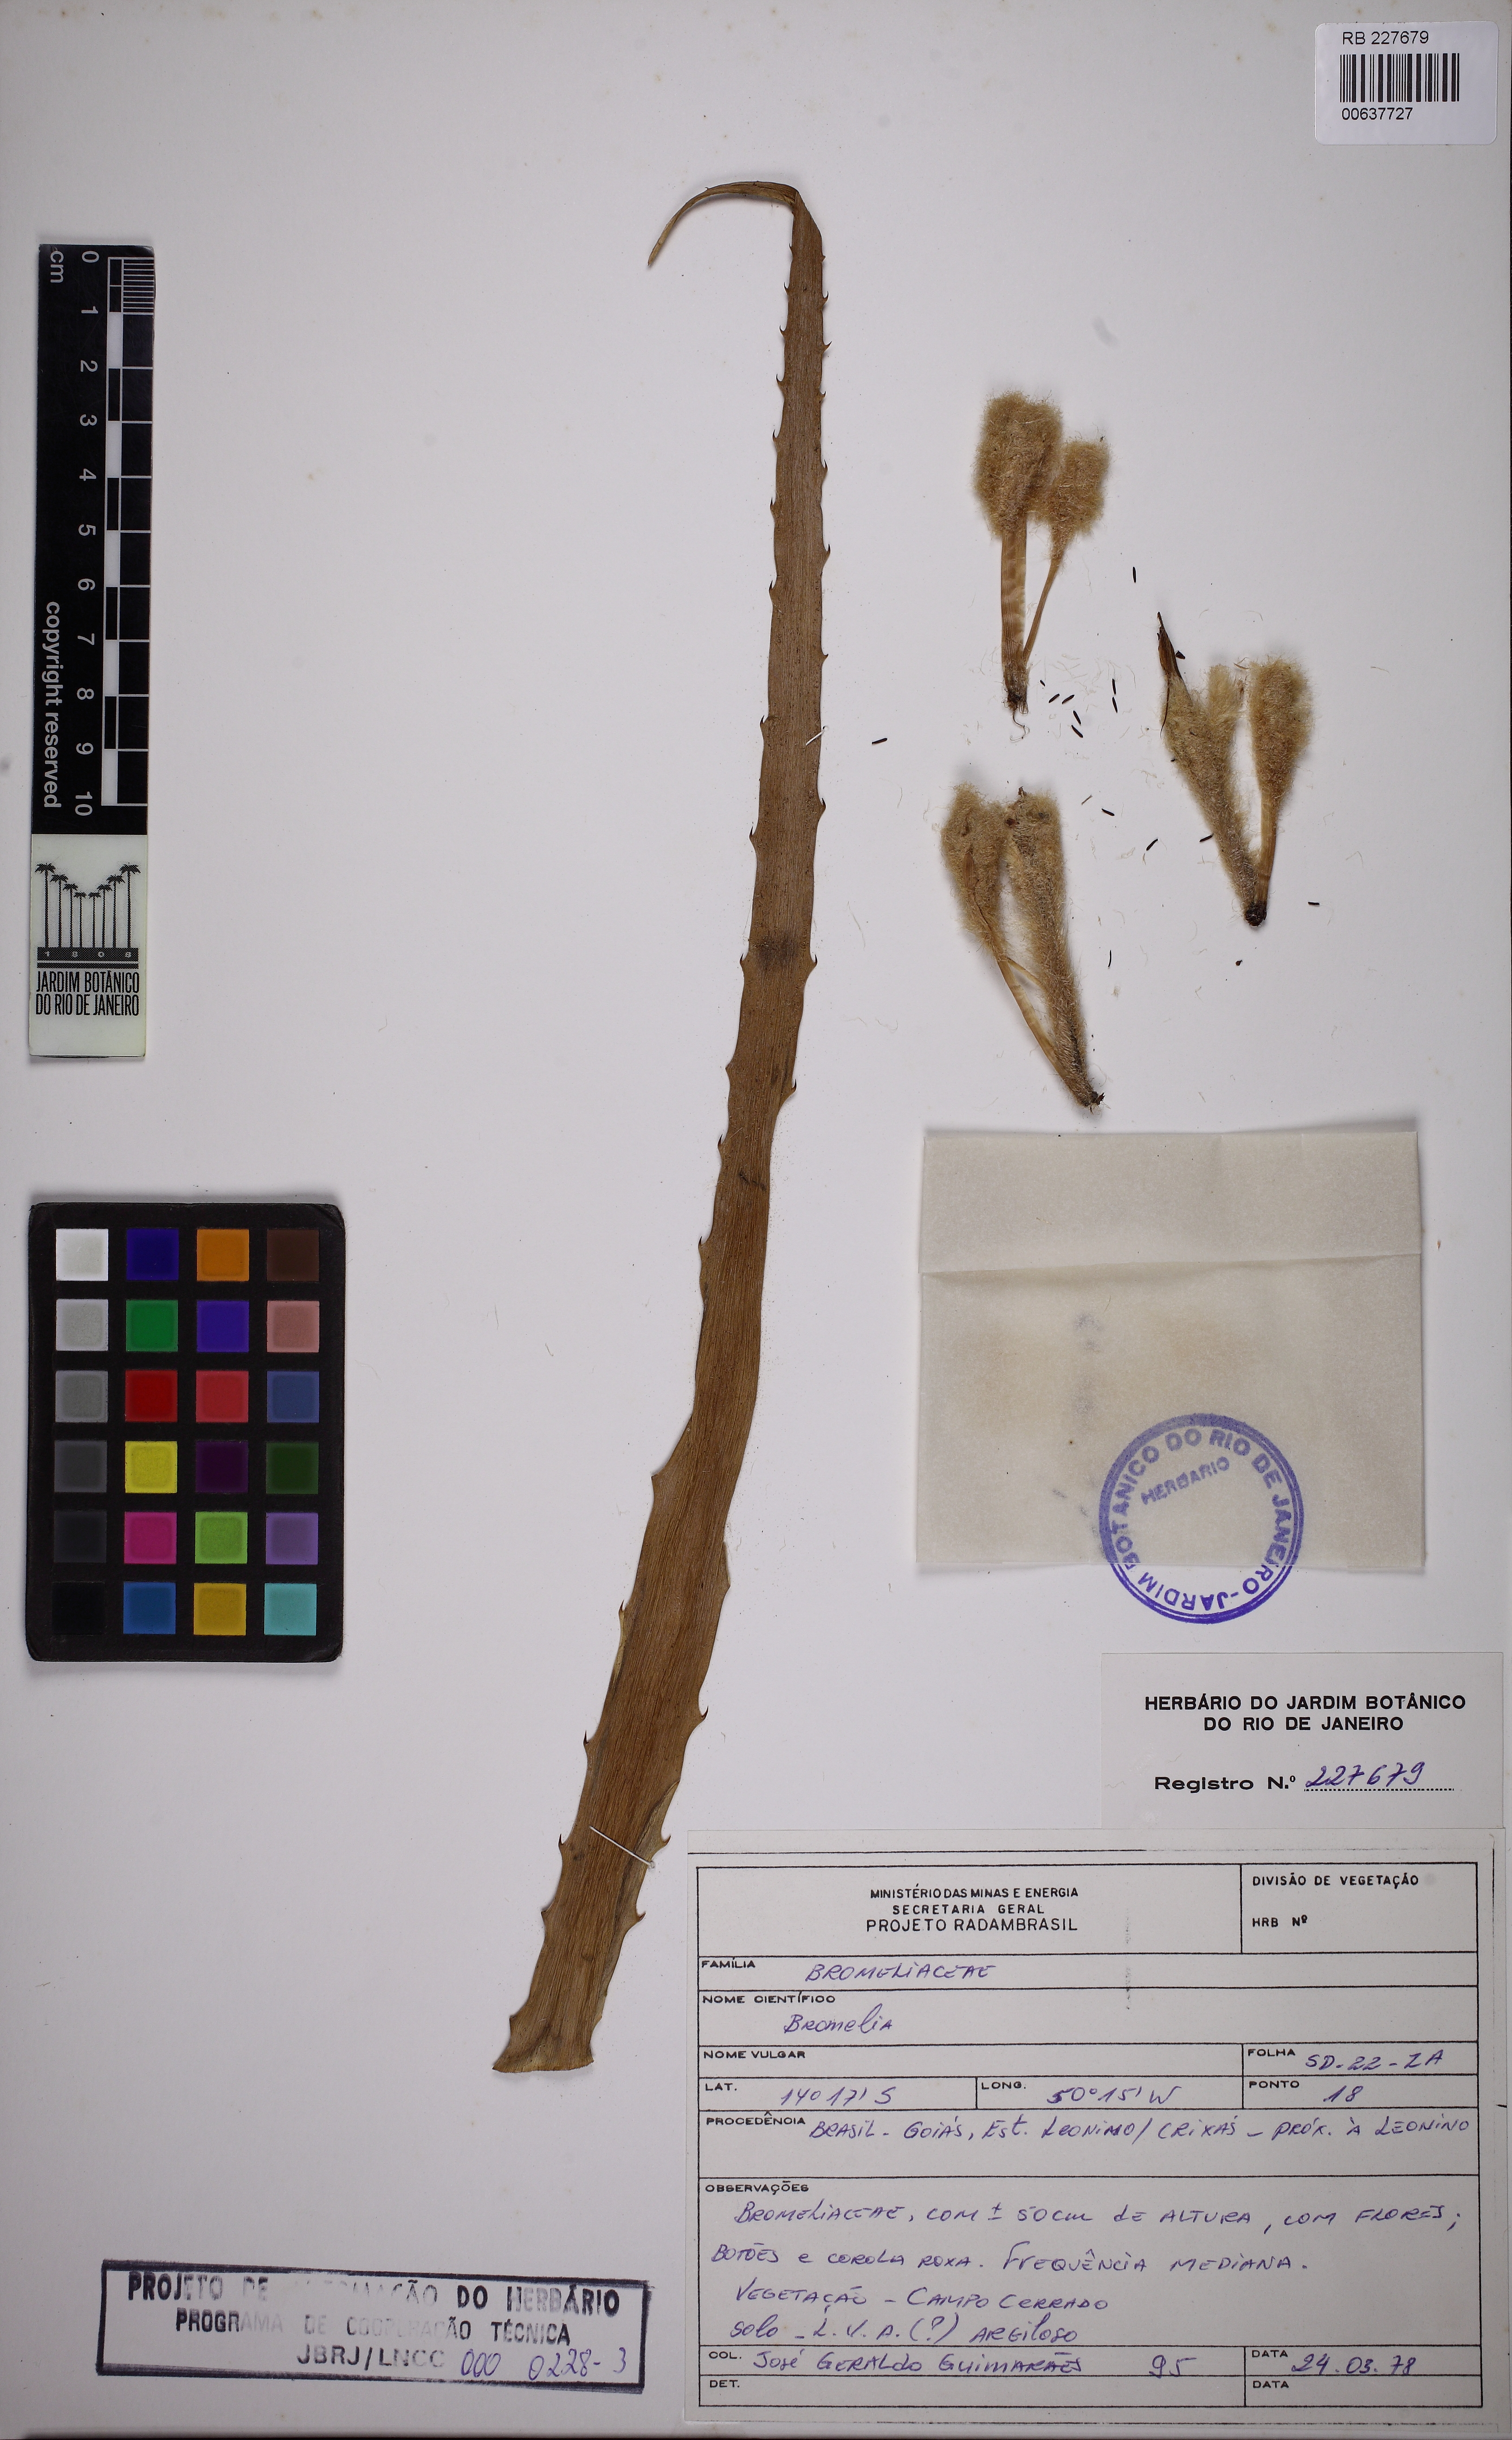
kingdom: Plantae
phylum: Tracheophyta
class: Liliopsida
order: Poales
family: Bromeliaceae
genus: Bromelia
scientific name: Bromelia magnifica
